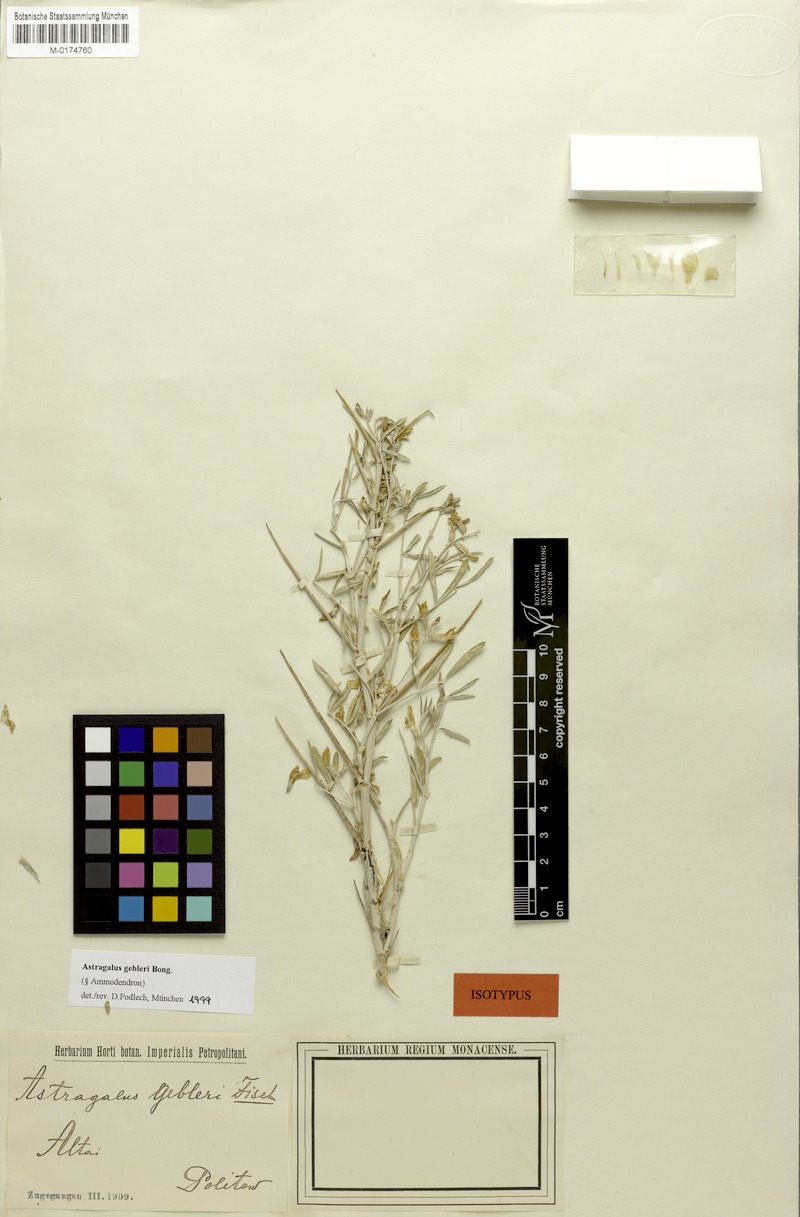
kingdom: Plantae
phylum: Tracheophyta
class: Magnoliopsida
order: Fabales
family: Fabaceae
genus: Astragalus
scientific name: Astragalus gebleri
